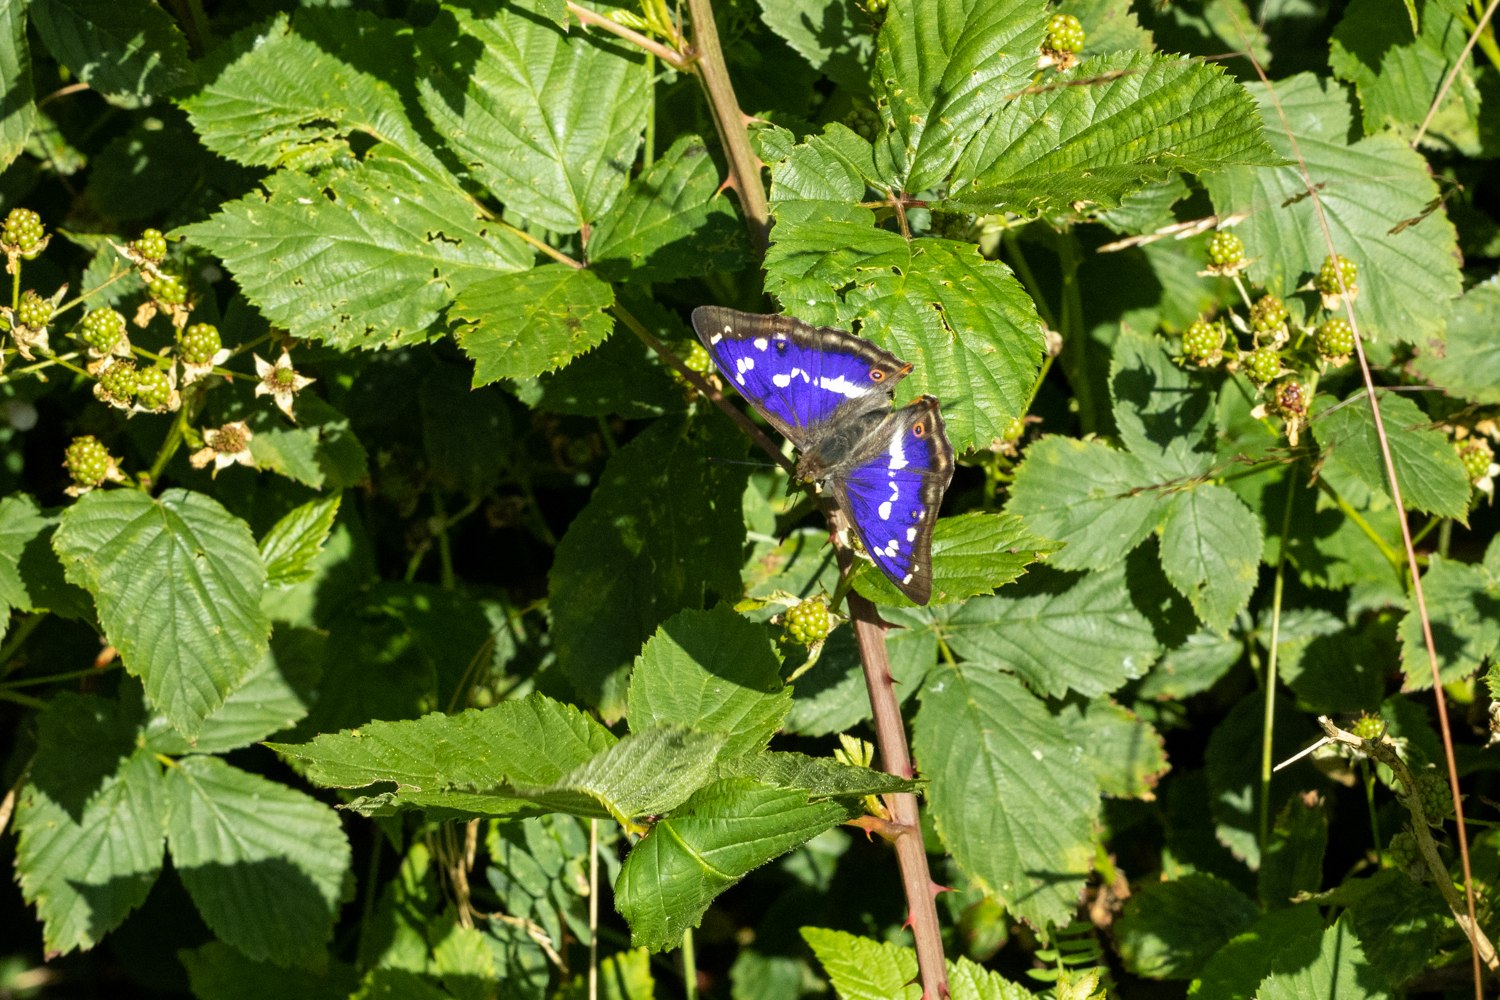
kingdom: Animalia
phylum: Arthropoda
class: Insecta
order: Lepidoptera
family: Nymphalidae
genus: Apatura
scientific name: Apatura iris
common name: Iris
